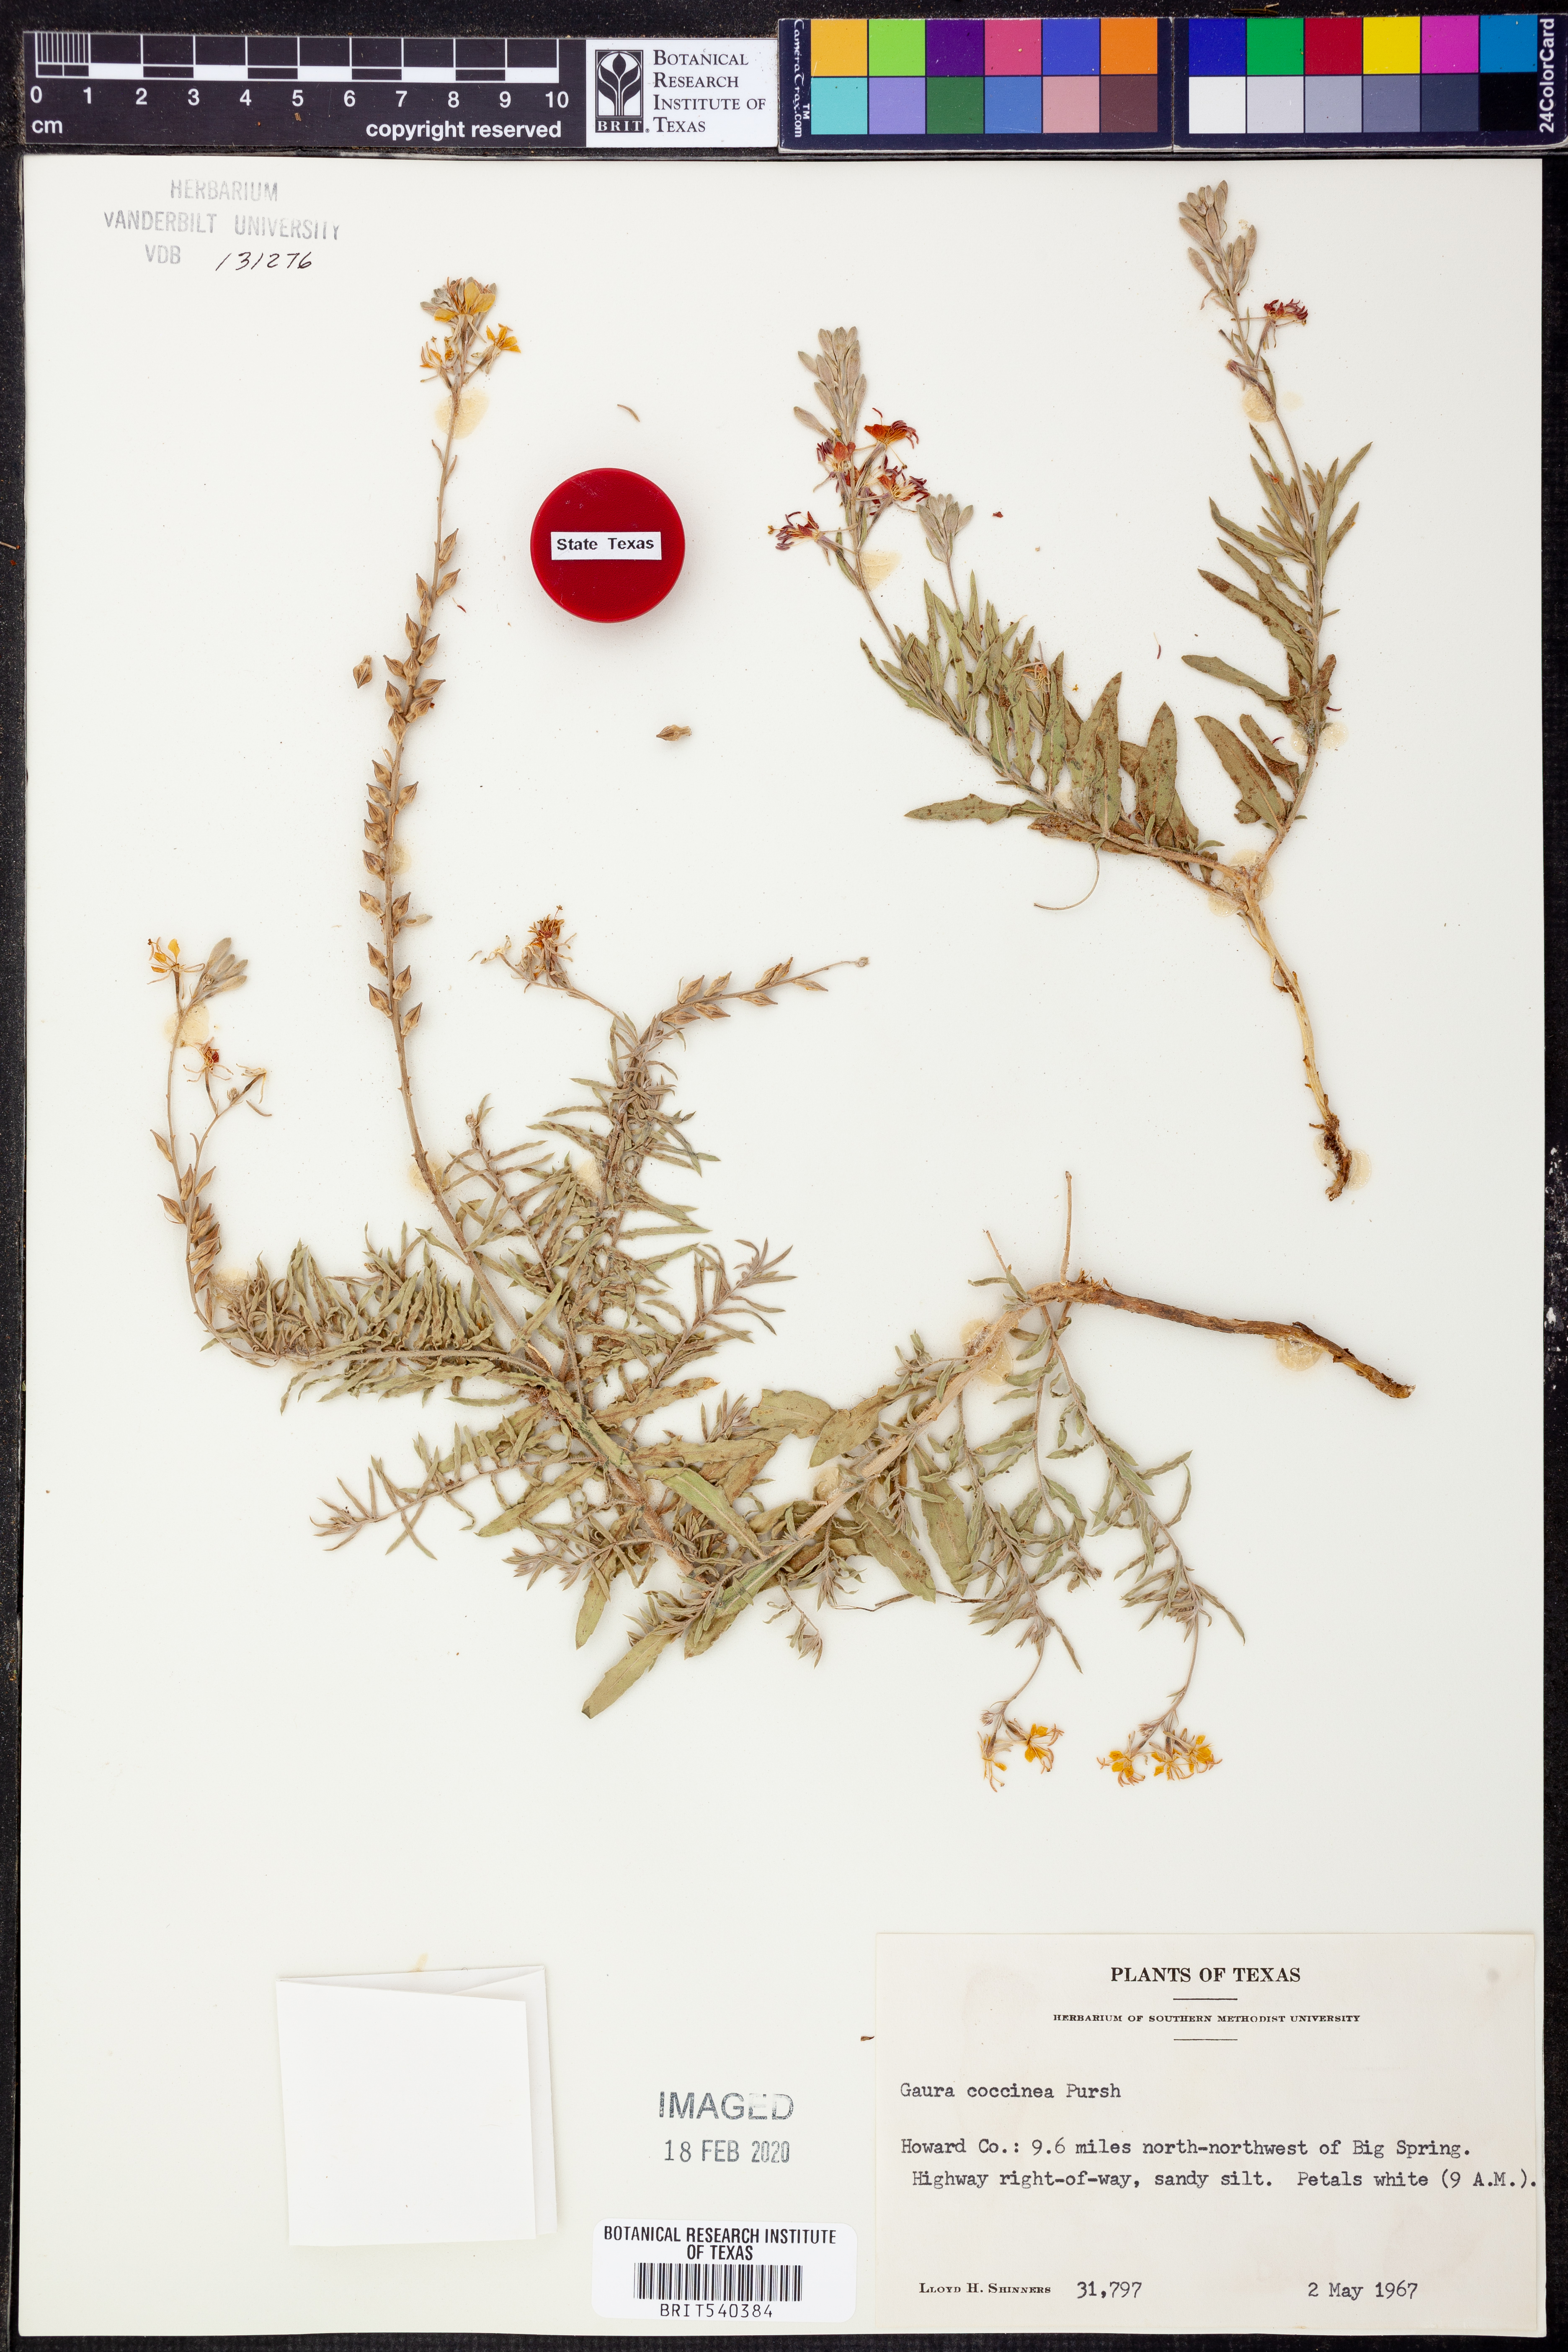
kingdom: Plantae
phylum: Tracheophyta
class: Magnoliopsida
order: Myrtales
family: Onagraceae
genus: Oenothera
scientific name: Oenothera suffrutescens
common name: Scarlet beeblossom
